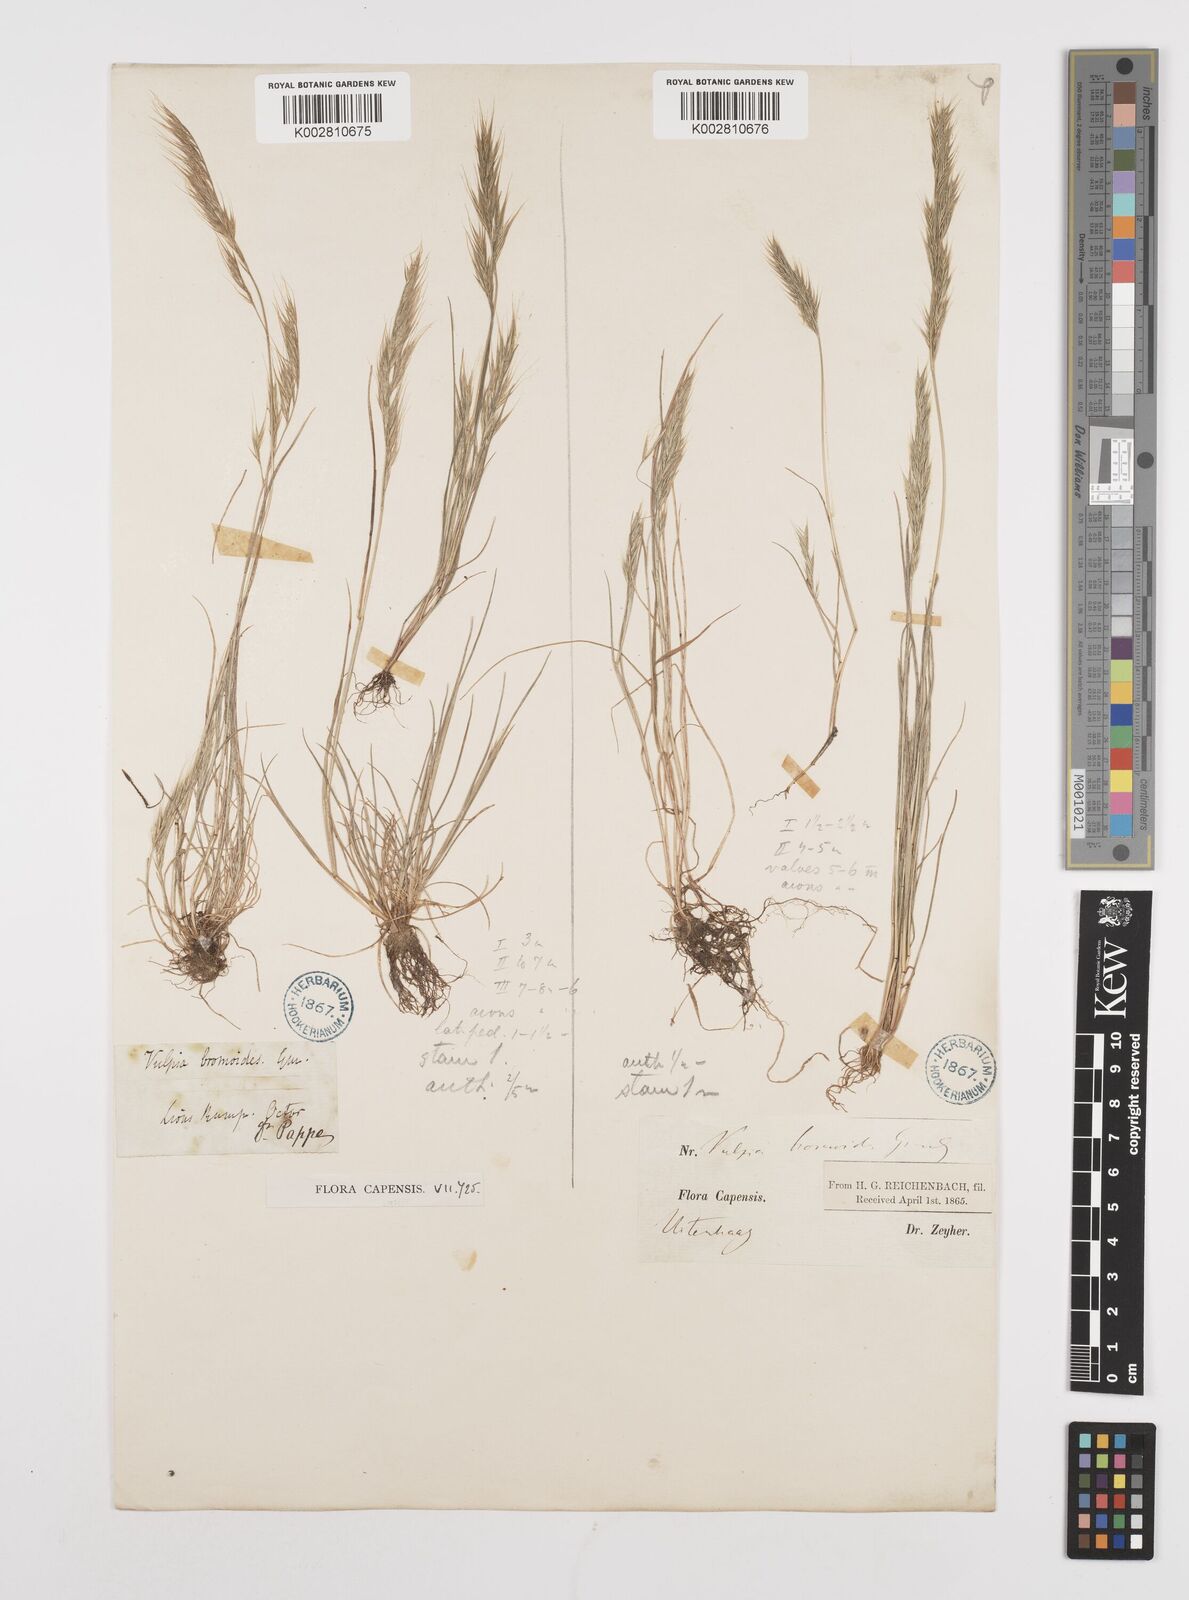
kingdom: Plantae
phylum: Tracheophyta
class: Liliopsida
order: Poales
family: Poaceae
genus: Festuca
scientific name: Festuca bromoides
